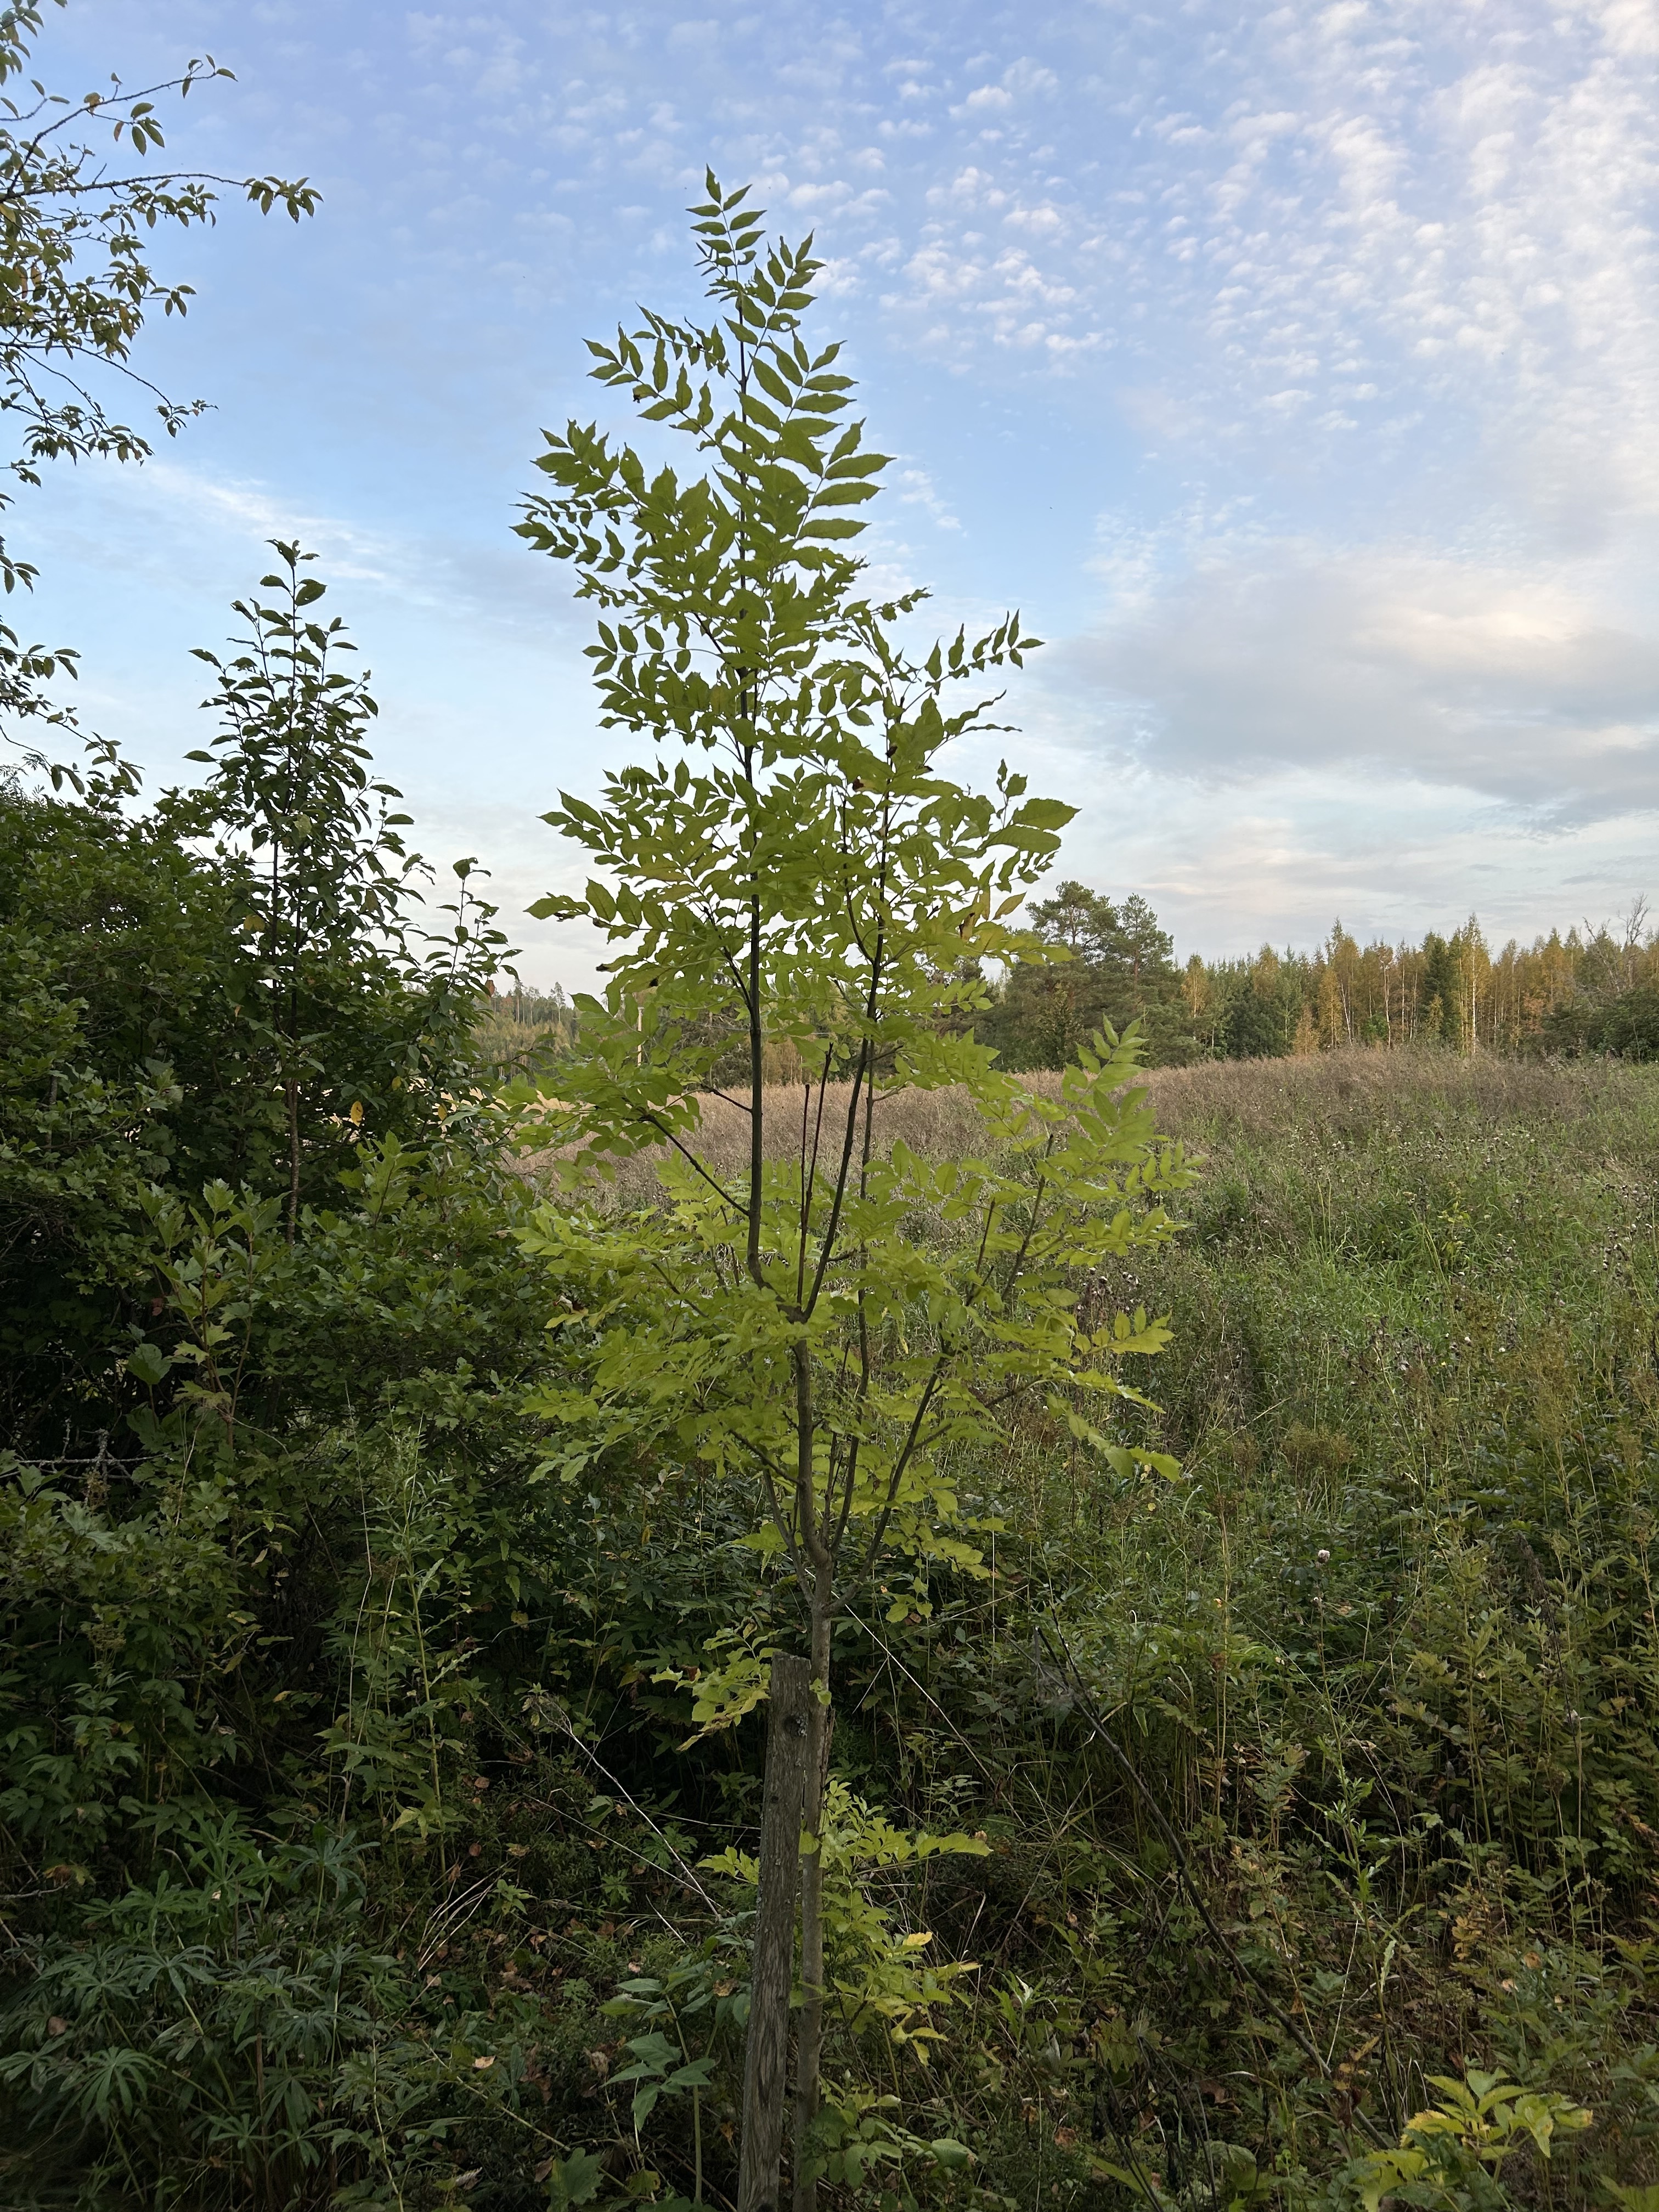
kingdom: Plantae
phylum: Tracheophyta
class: Magnoliopsida
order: Lamiales
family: Oleaceae
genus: Fraxinus
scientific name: Fraxinus excelsior
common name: European ash
